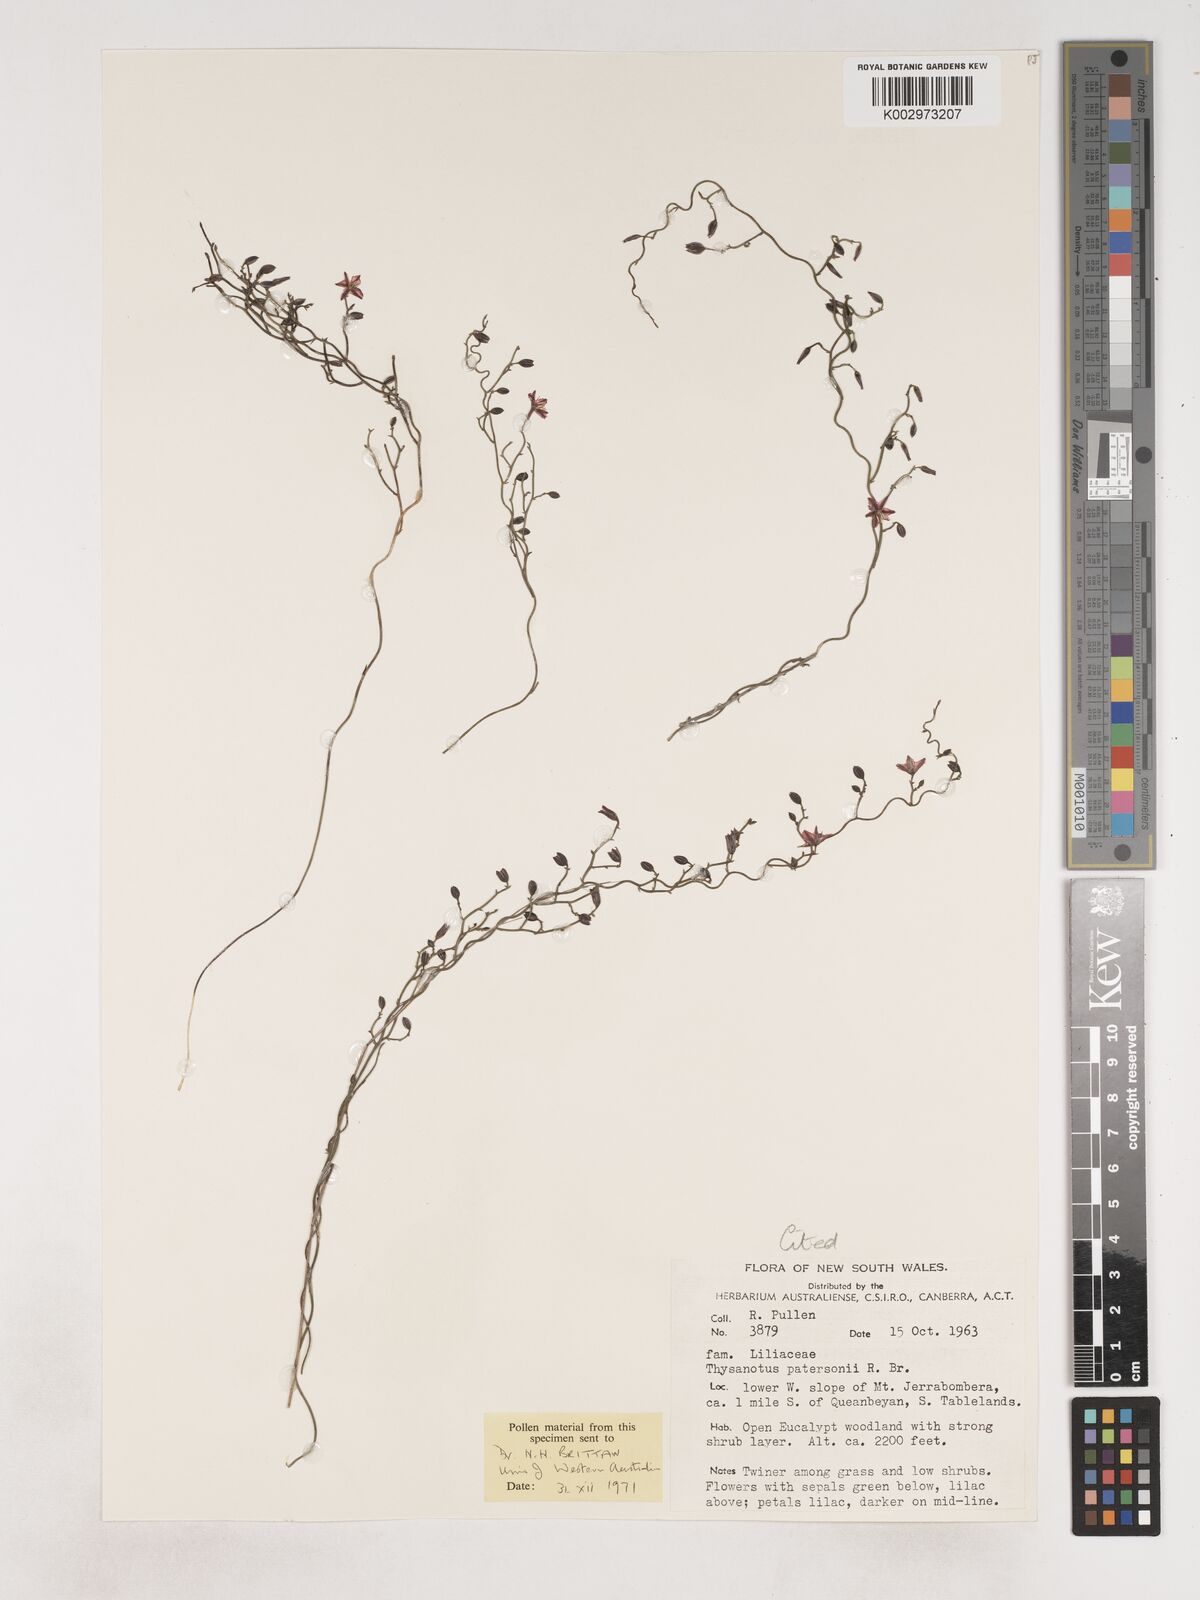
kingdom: Plantae
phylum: Tracheophyta
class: Liliopsida
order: Asparagales
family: Asparagaceae
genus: Thysanotus
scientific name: Thysanotus patersonii
